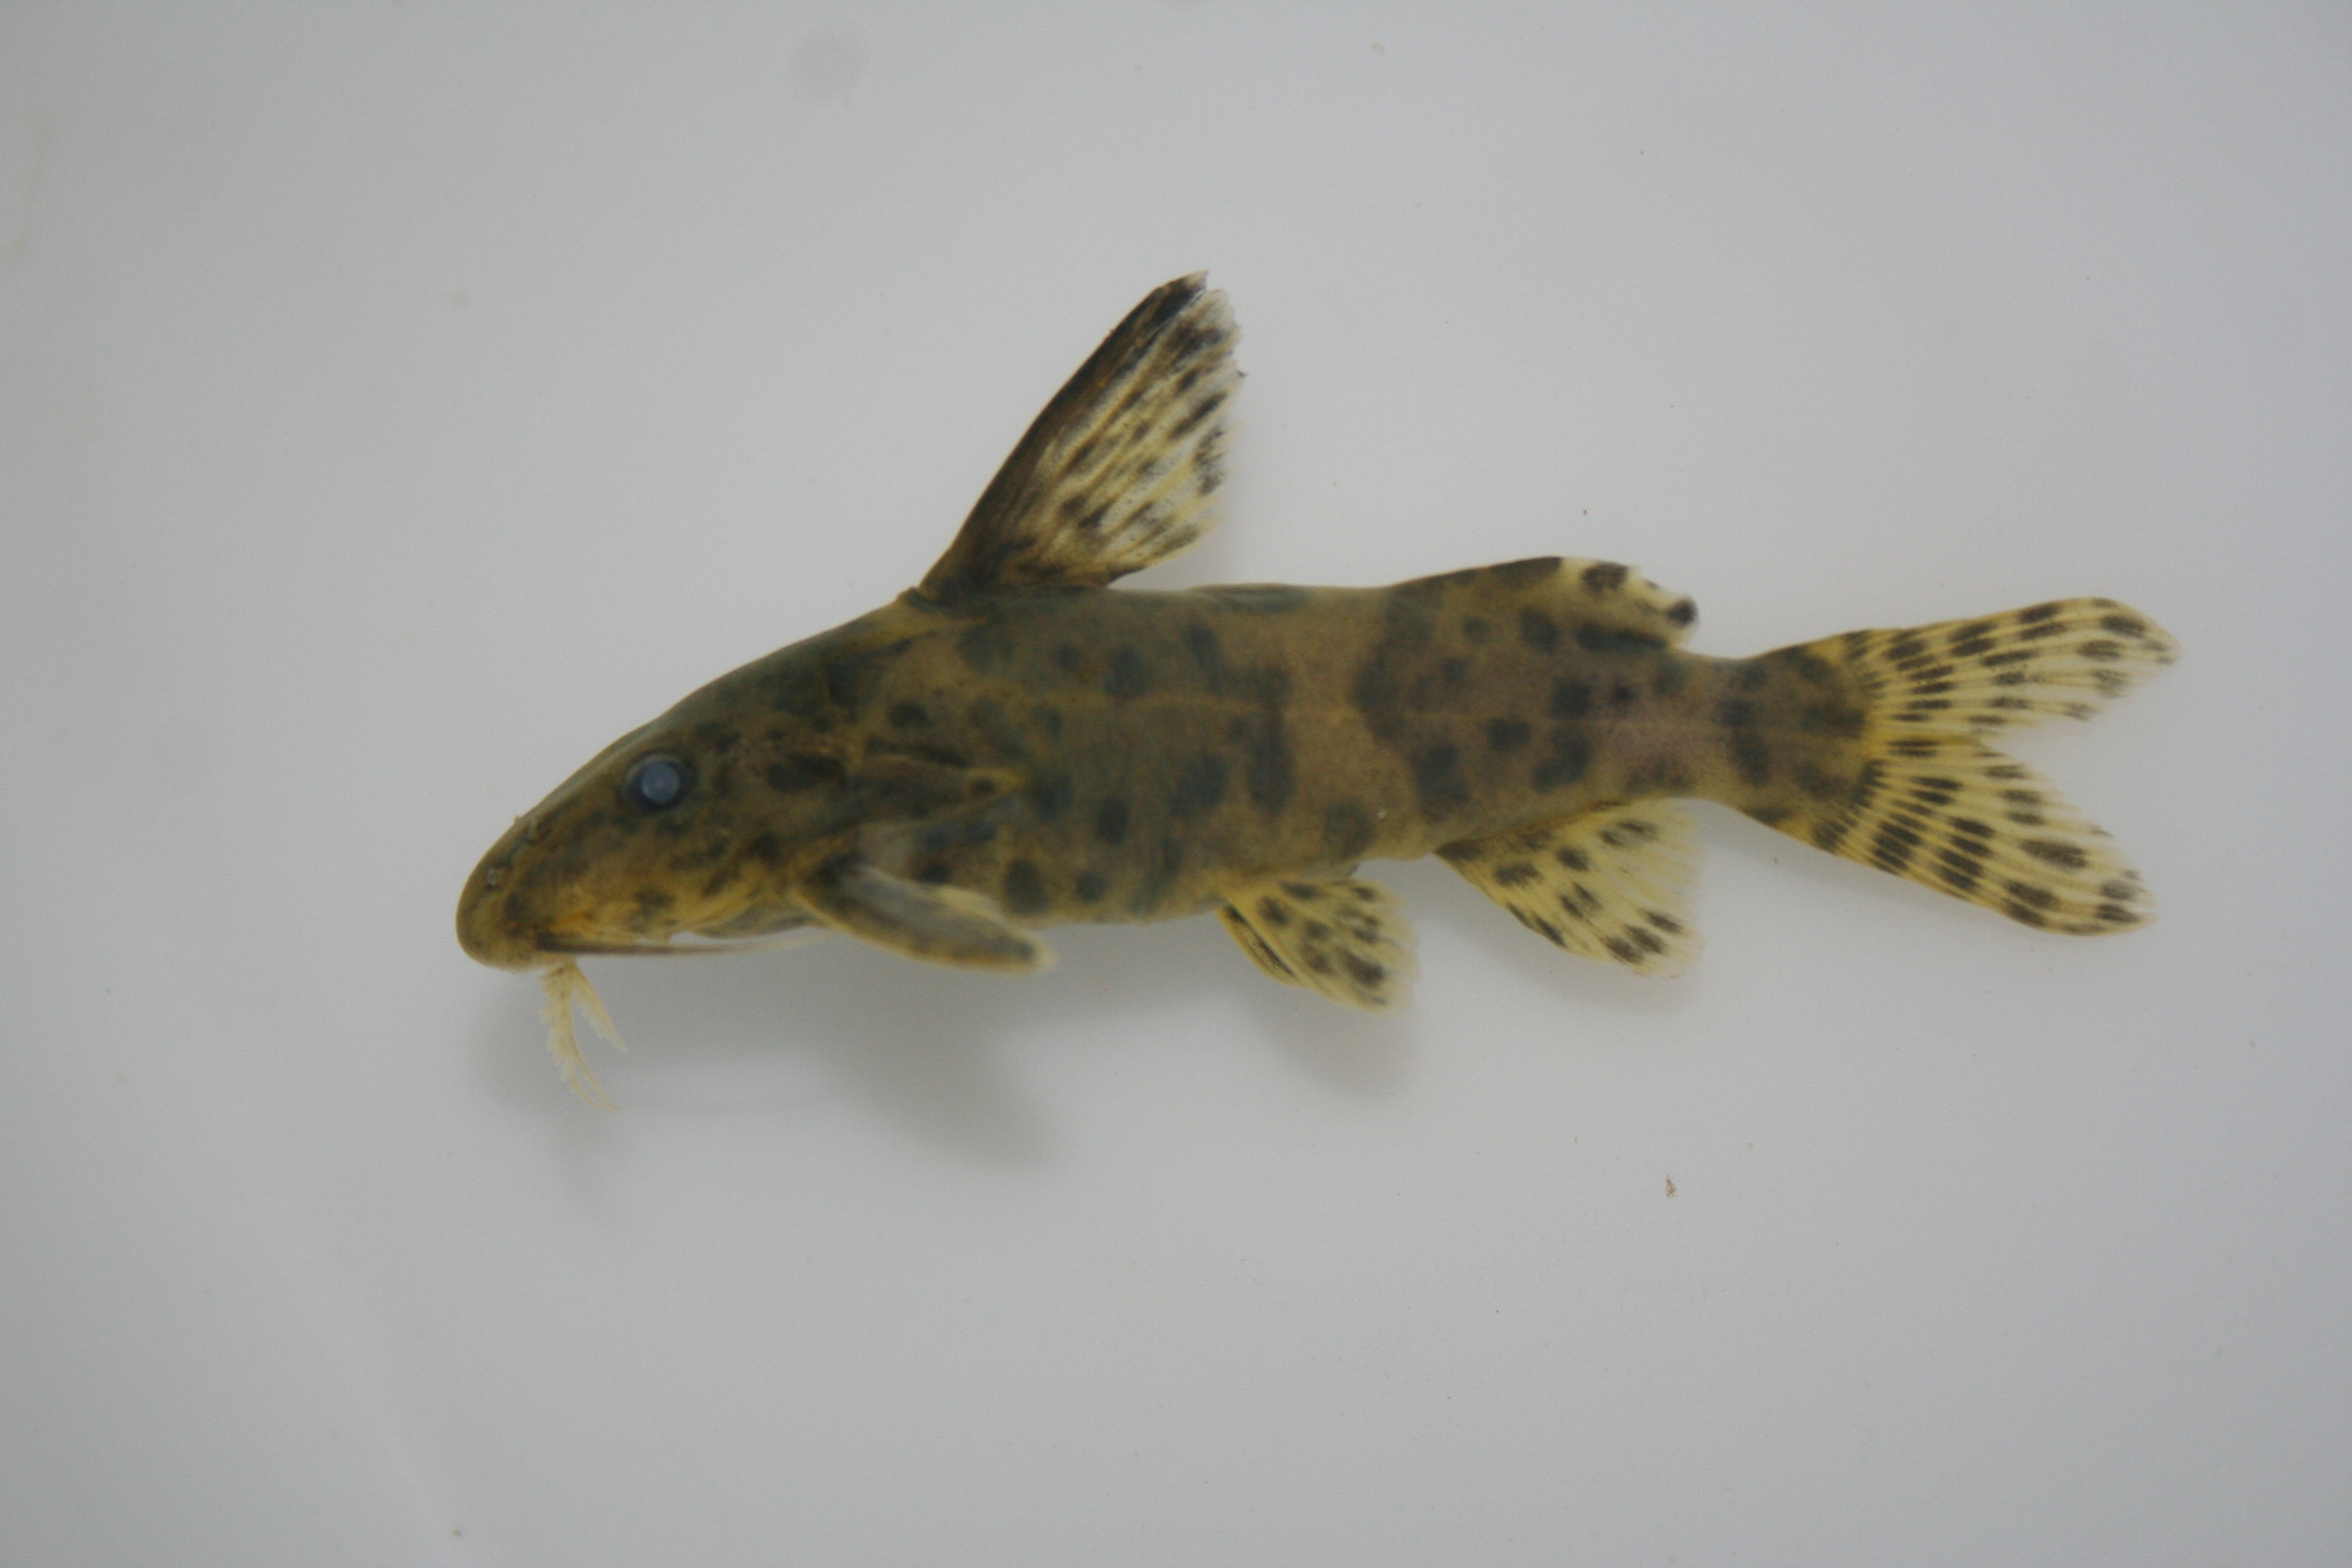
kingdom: Animalia
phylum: Chordata
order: Siluriformes
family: Mochokidae
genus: Synodontis
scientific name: Synodontis
